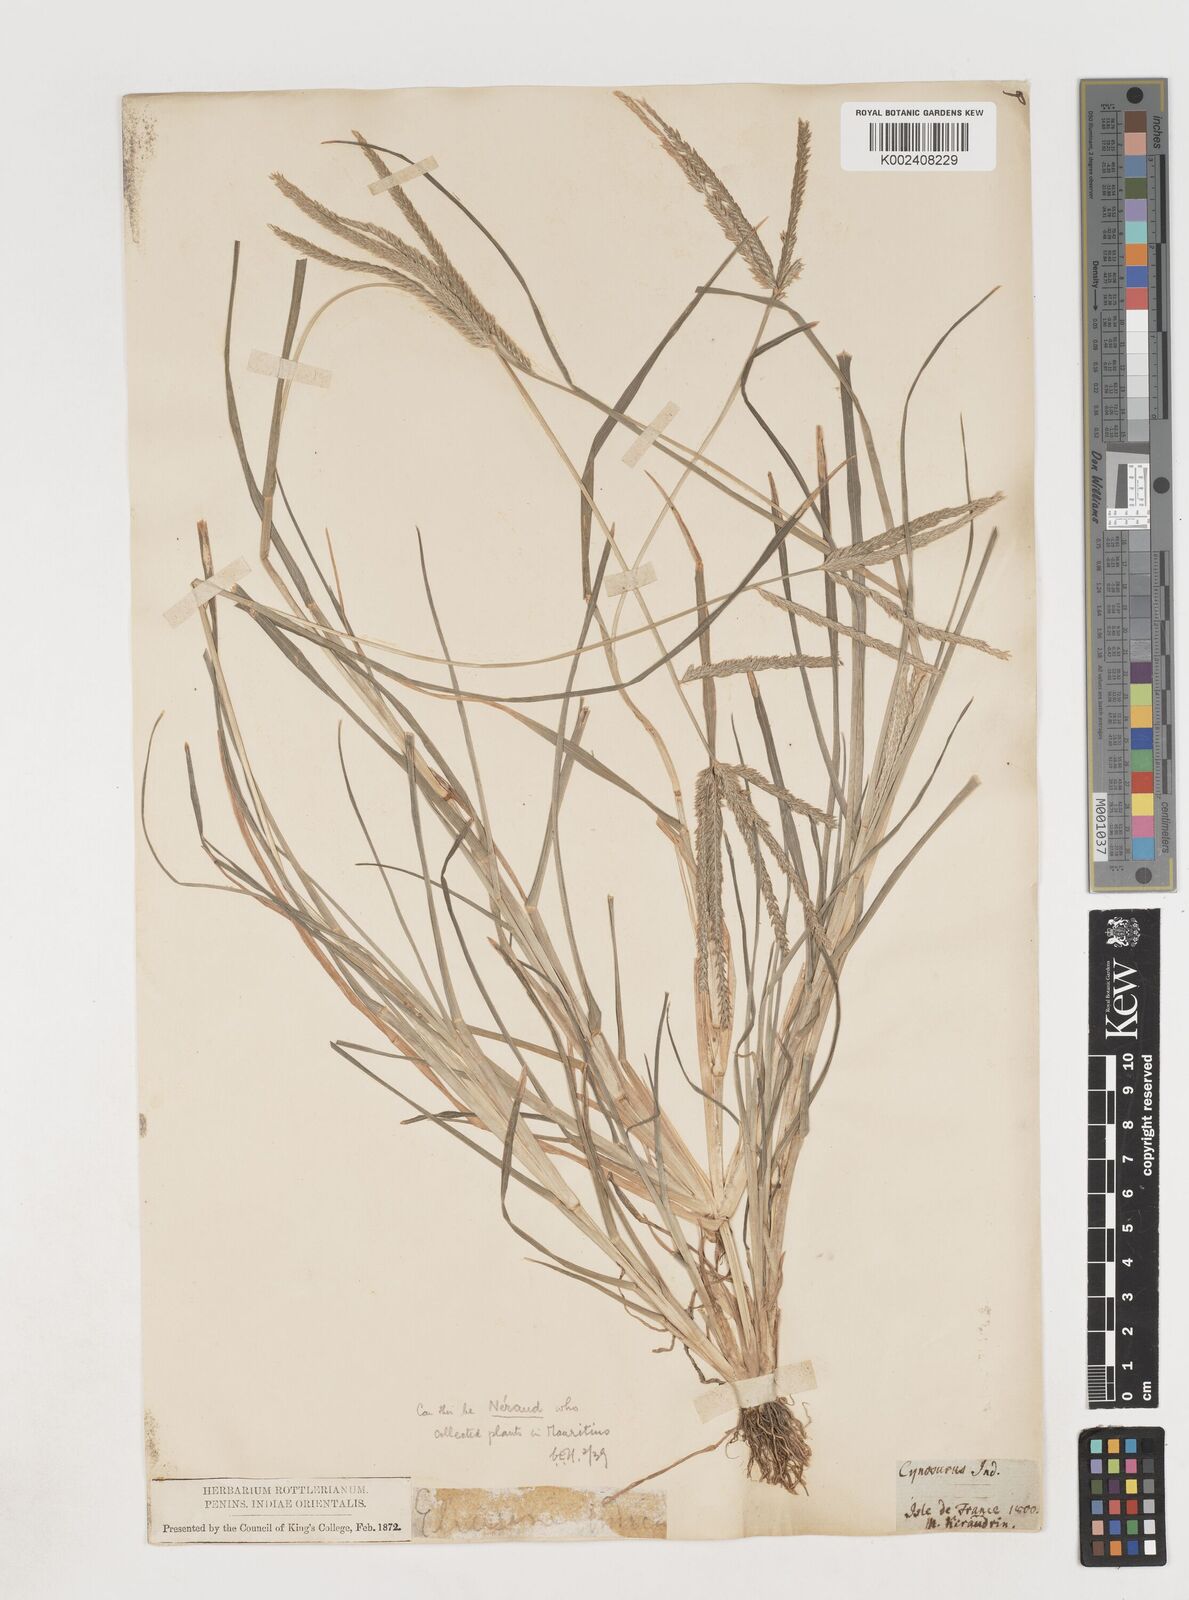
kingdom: Plantae
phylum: Tracheophyta
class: Liliopsida
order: Poales
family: Poaceae
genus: Eleusine
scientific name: Eleusine africana
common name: Wild african finger millet
